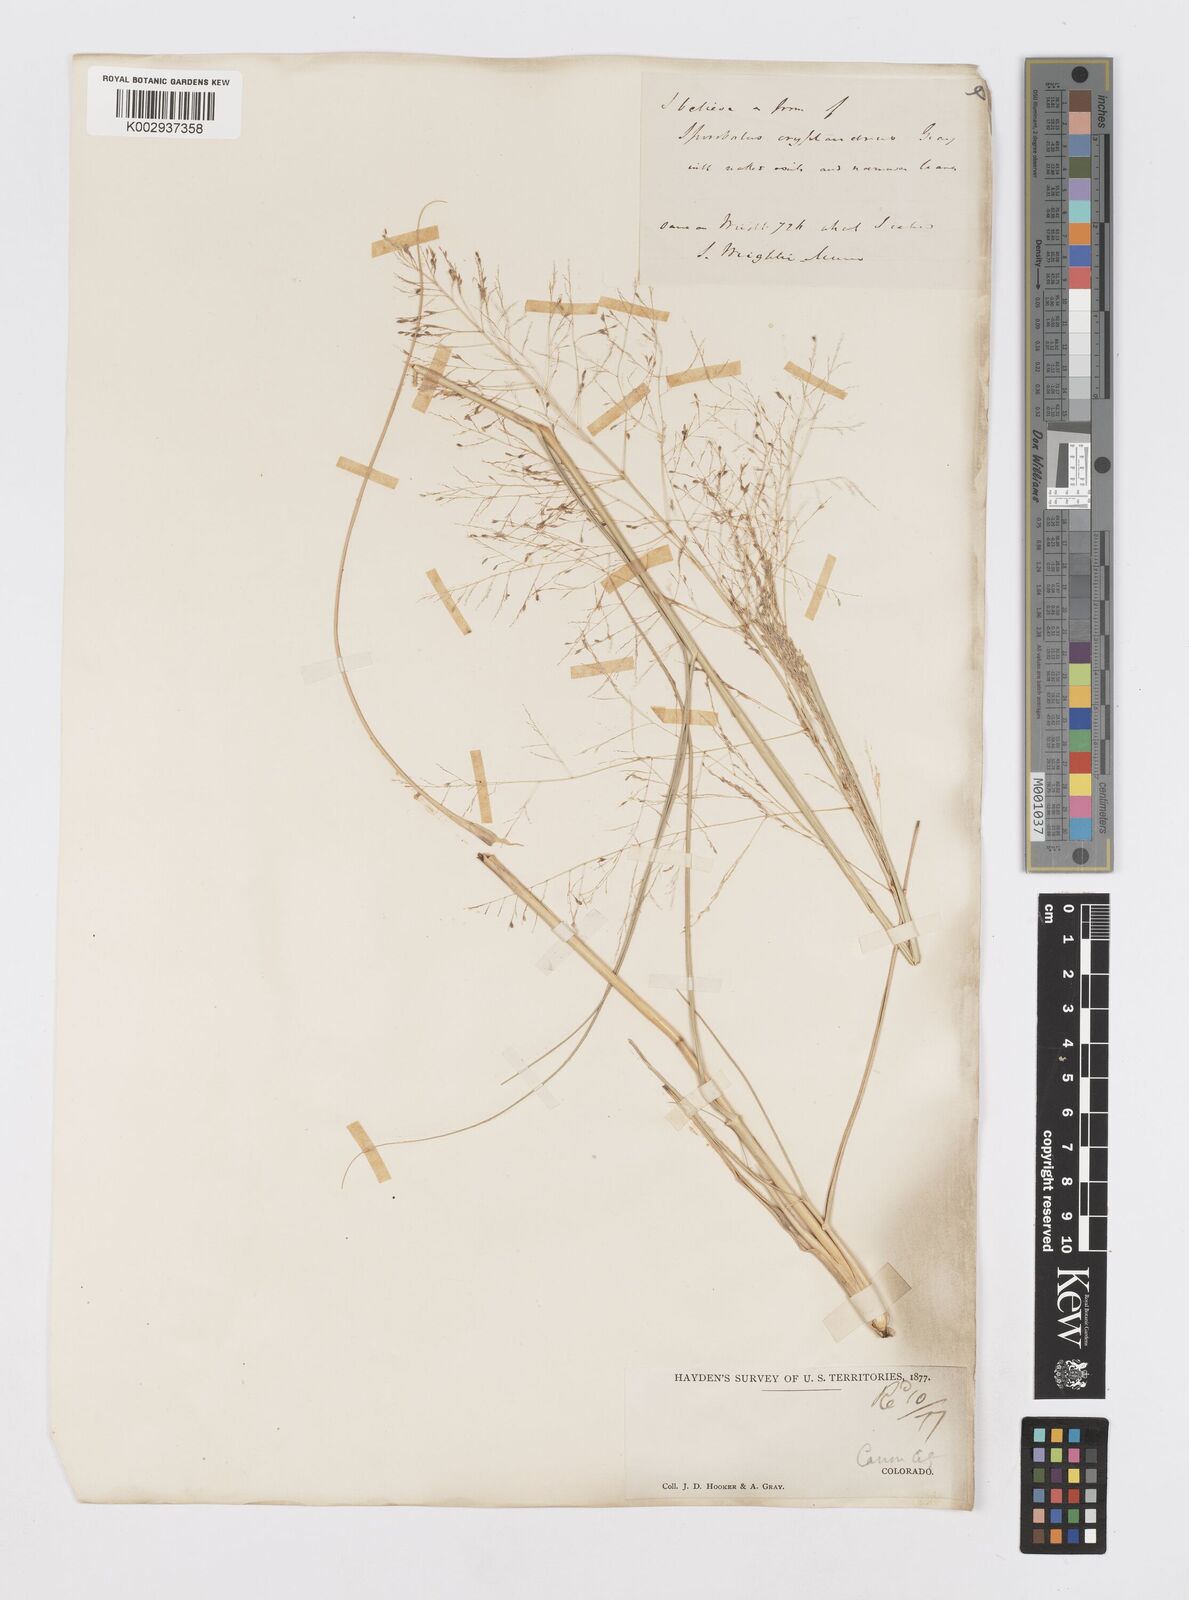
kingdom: Plantae
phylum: Tracheophyta
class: Liliopsida
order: Poales
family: Poaceae
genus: Sporobolus
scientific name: Sporobolus cryptandrus
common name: Sand dropseed
